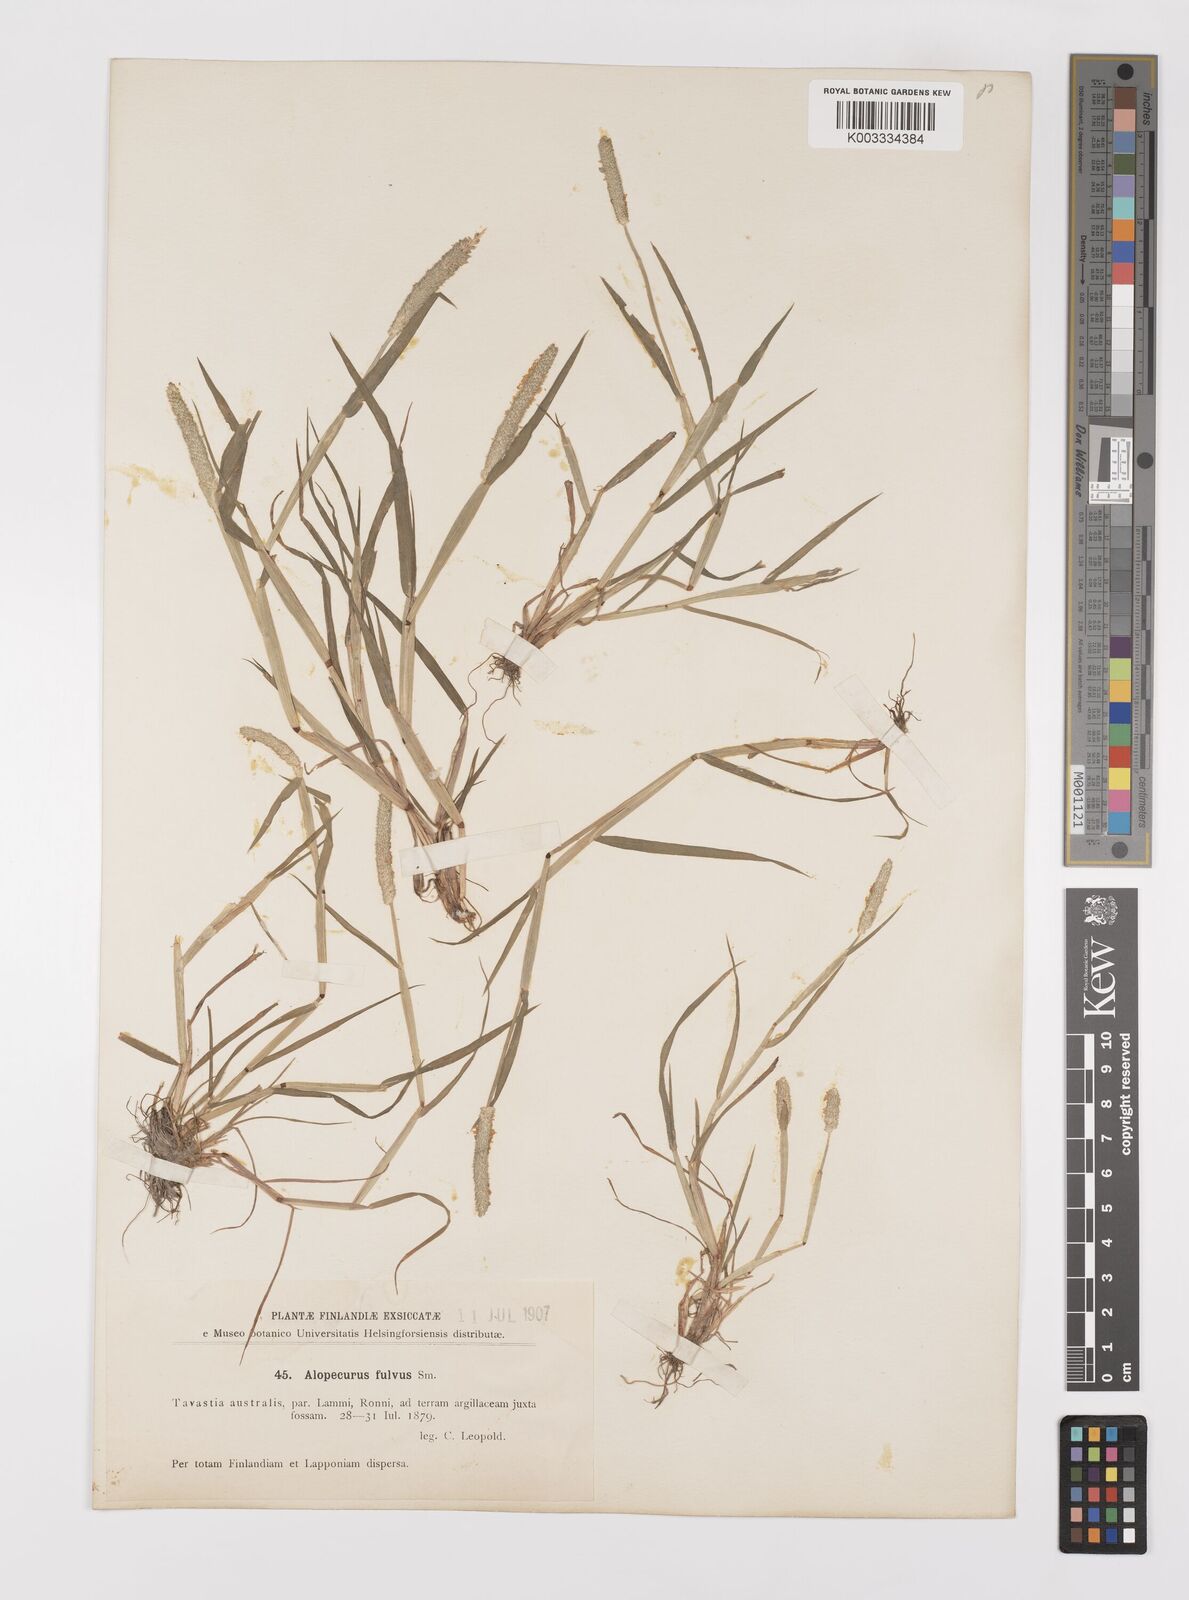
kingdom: Plantae
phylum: Tracheophyta
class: Liliopsida
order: Poales
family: Poaceae
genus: Alopecurus
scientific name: Alopecurus aequalis
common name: Orange foxtail
